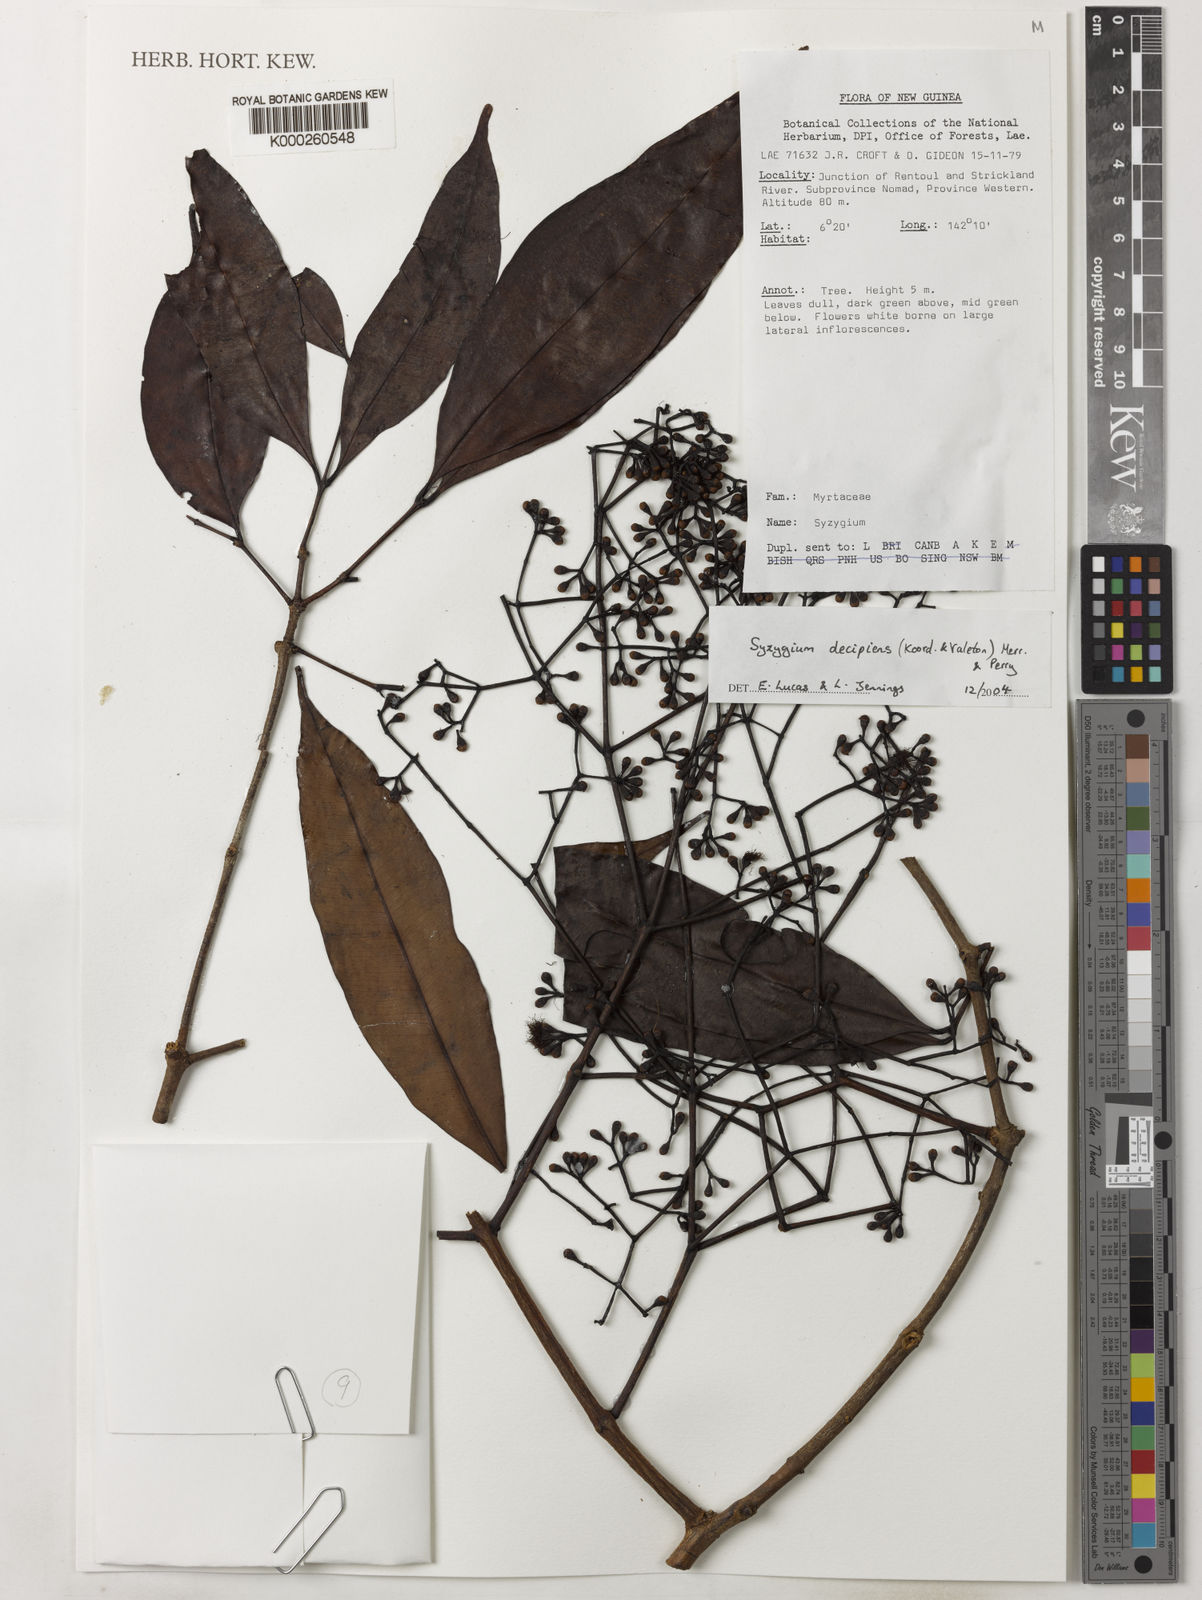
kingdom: Plantae
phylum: Tracheophyta
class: Magnoliopsida
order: Myrtales
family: Myrtaceae
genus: Syzygium
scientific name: Syzygium decipiens
